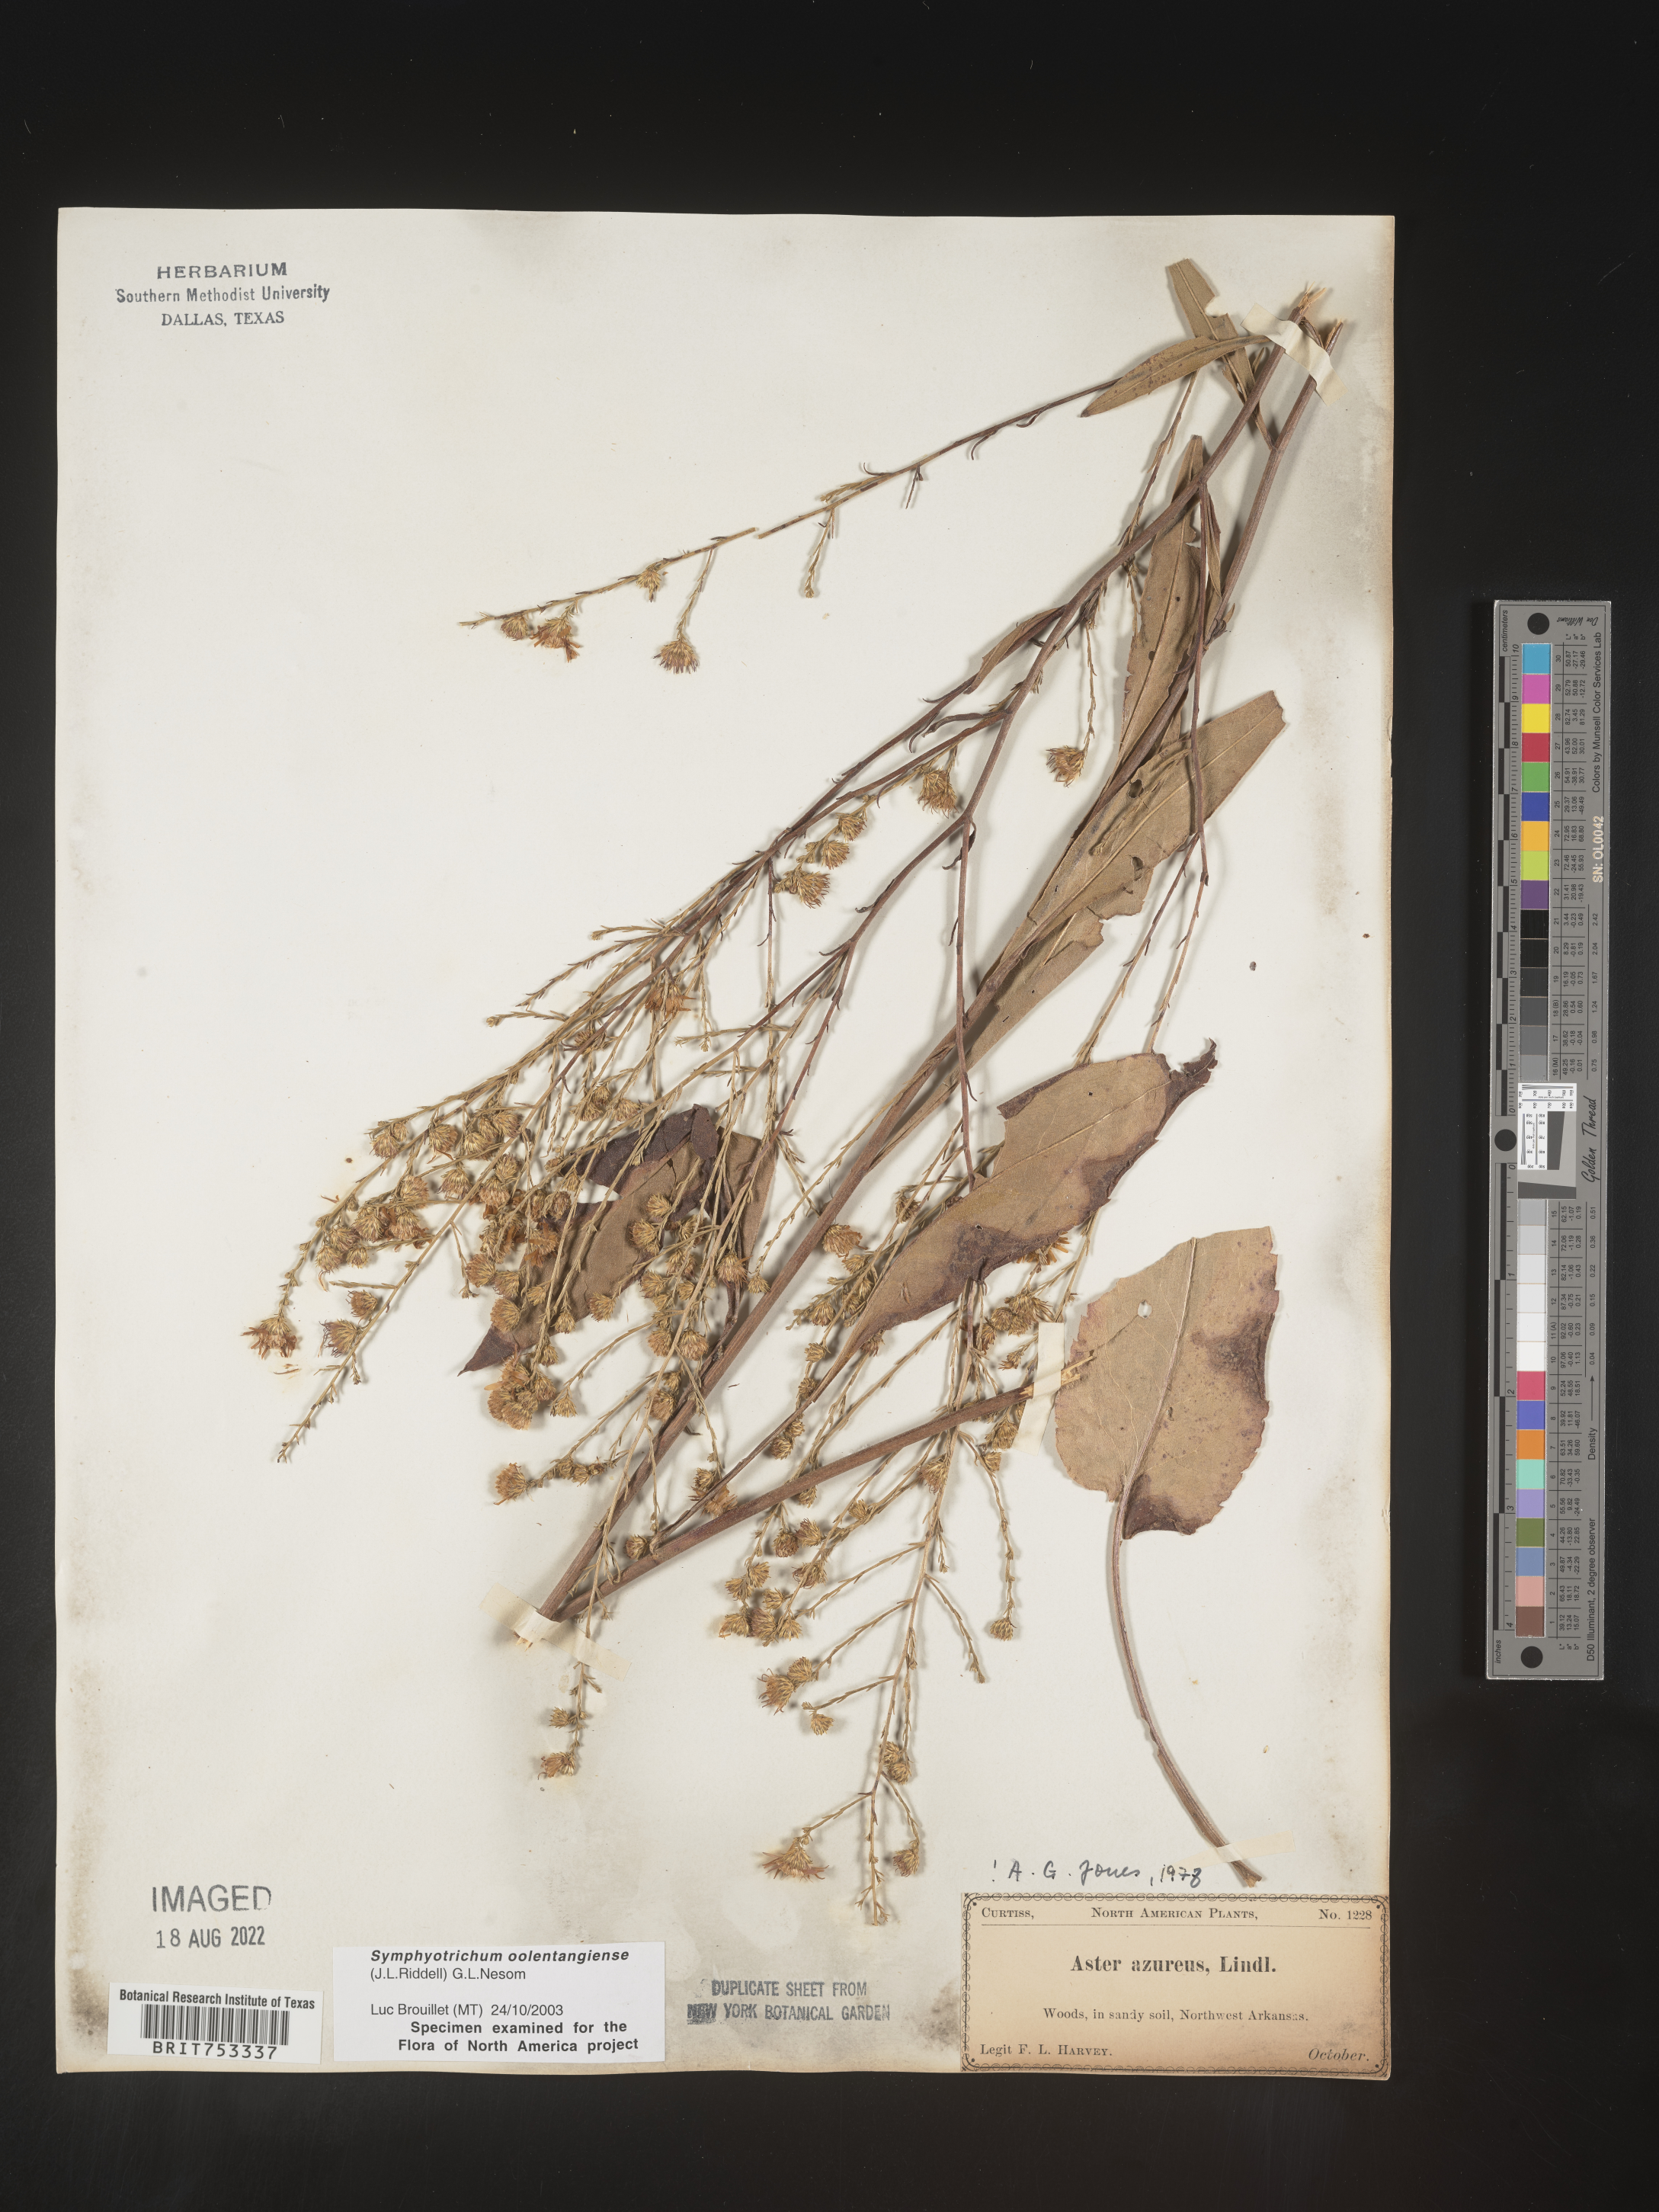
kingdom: Plantae
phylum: Tracheophyta
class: Magnoliopsida
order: Asterales
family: Asteraceae
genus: Symphyotrichum
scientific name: Symphyotrichum oolentangiense
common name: Azure aster
